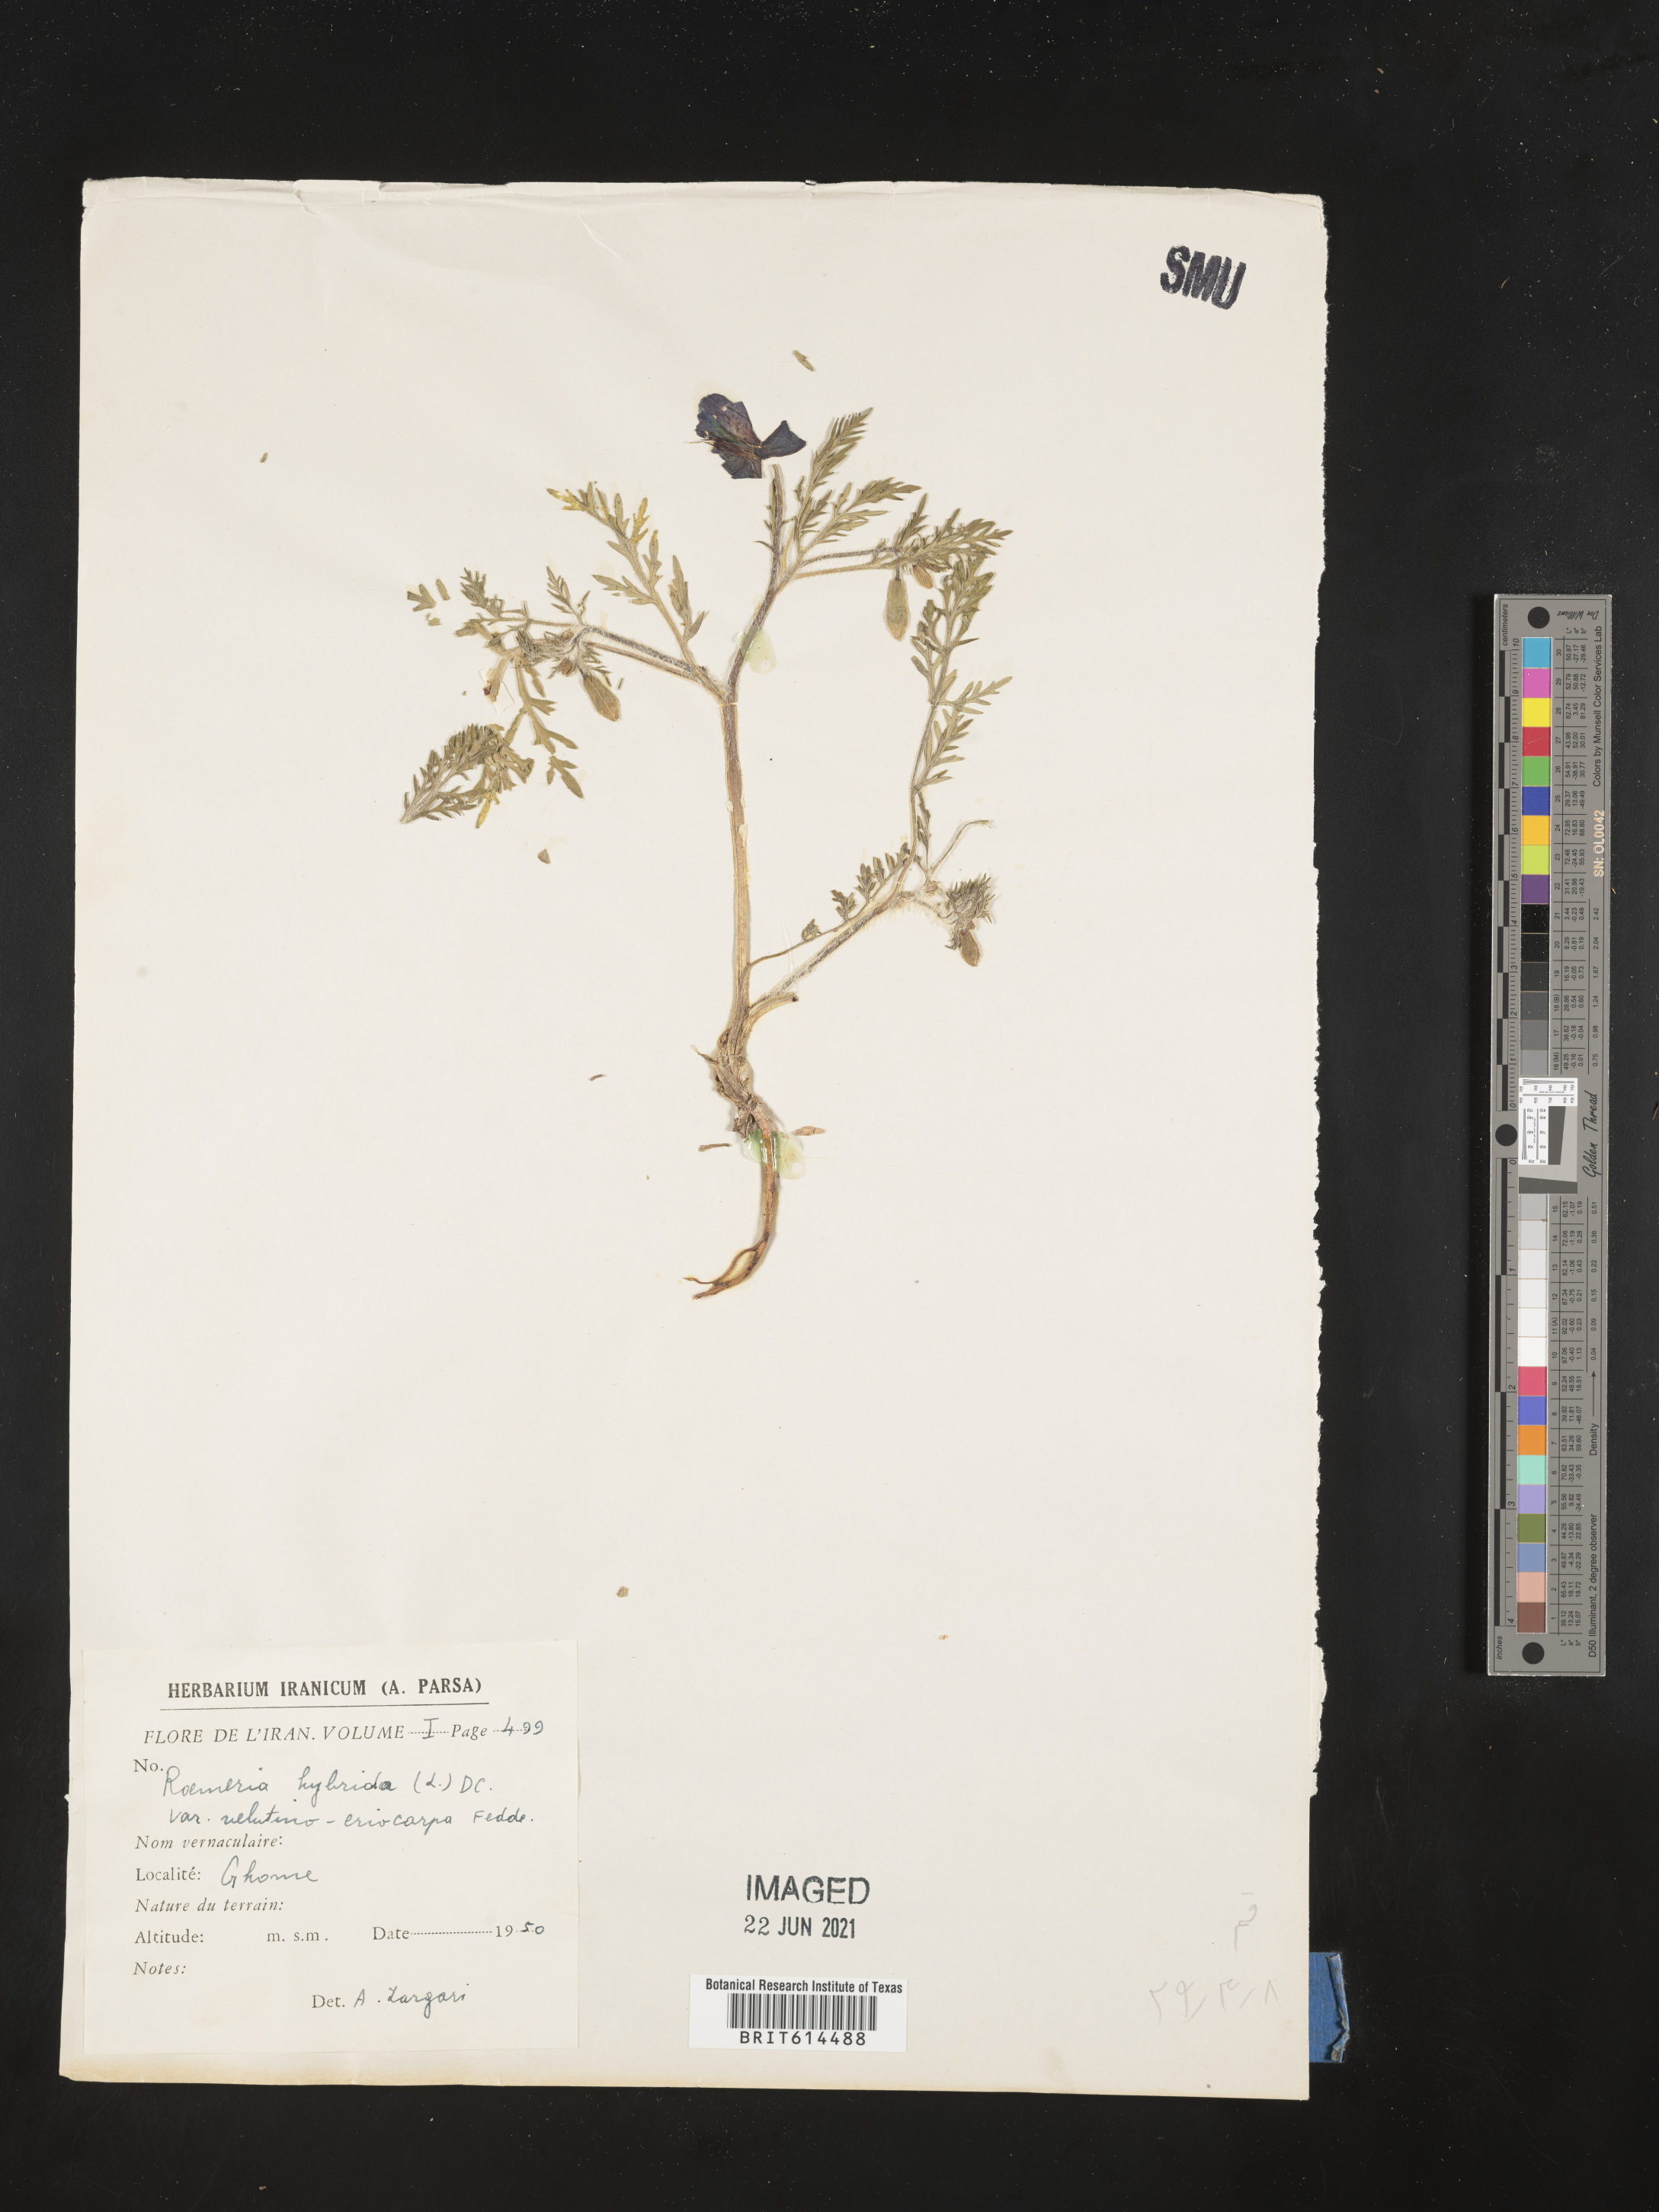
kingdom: Plantae
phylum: Tracheophyta
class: Magnoliopsida
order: Ranunculales
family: Papaveraceae
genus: Roemeria
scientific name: Roemeria hybrida
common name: Violet horned-poppy
